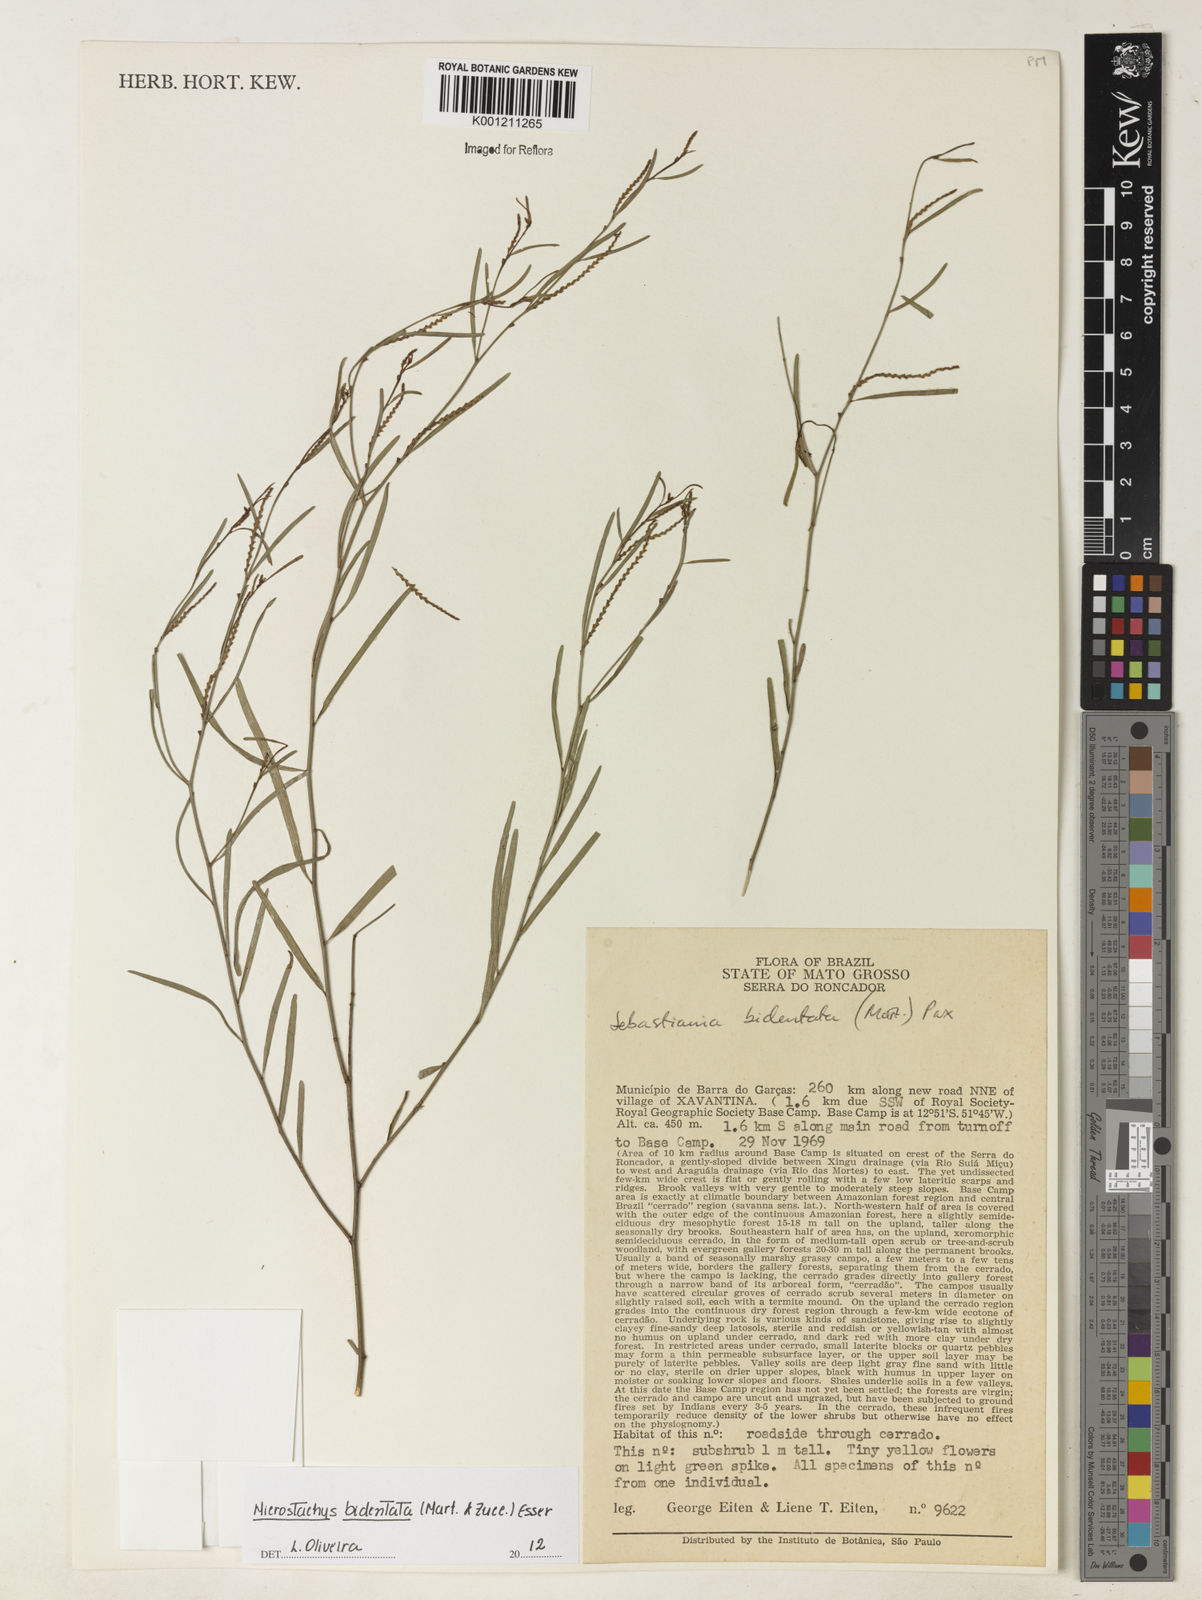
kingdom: Plantae
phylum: Tracheophyta
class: Magnoliopsida
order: Malpighiales
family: Euphorbiaceae
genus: Microstachys
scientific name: Microstachys bidentata
